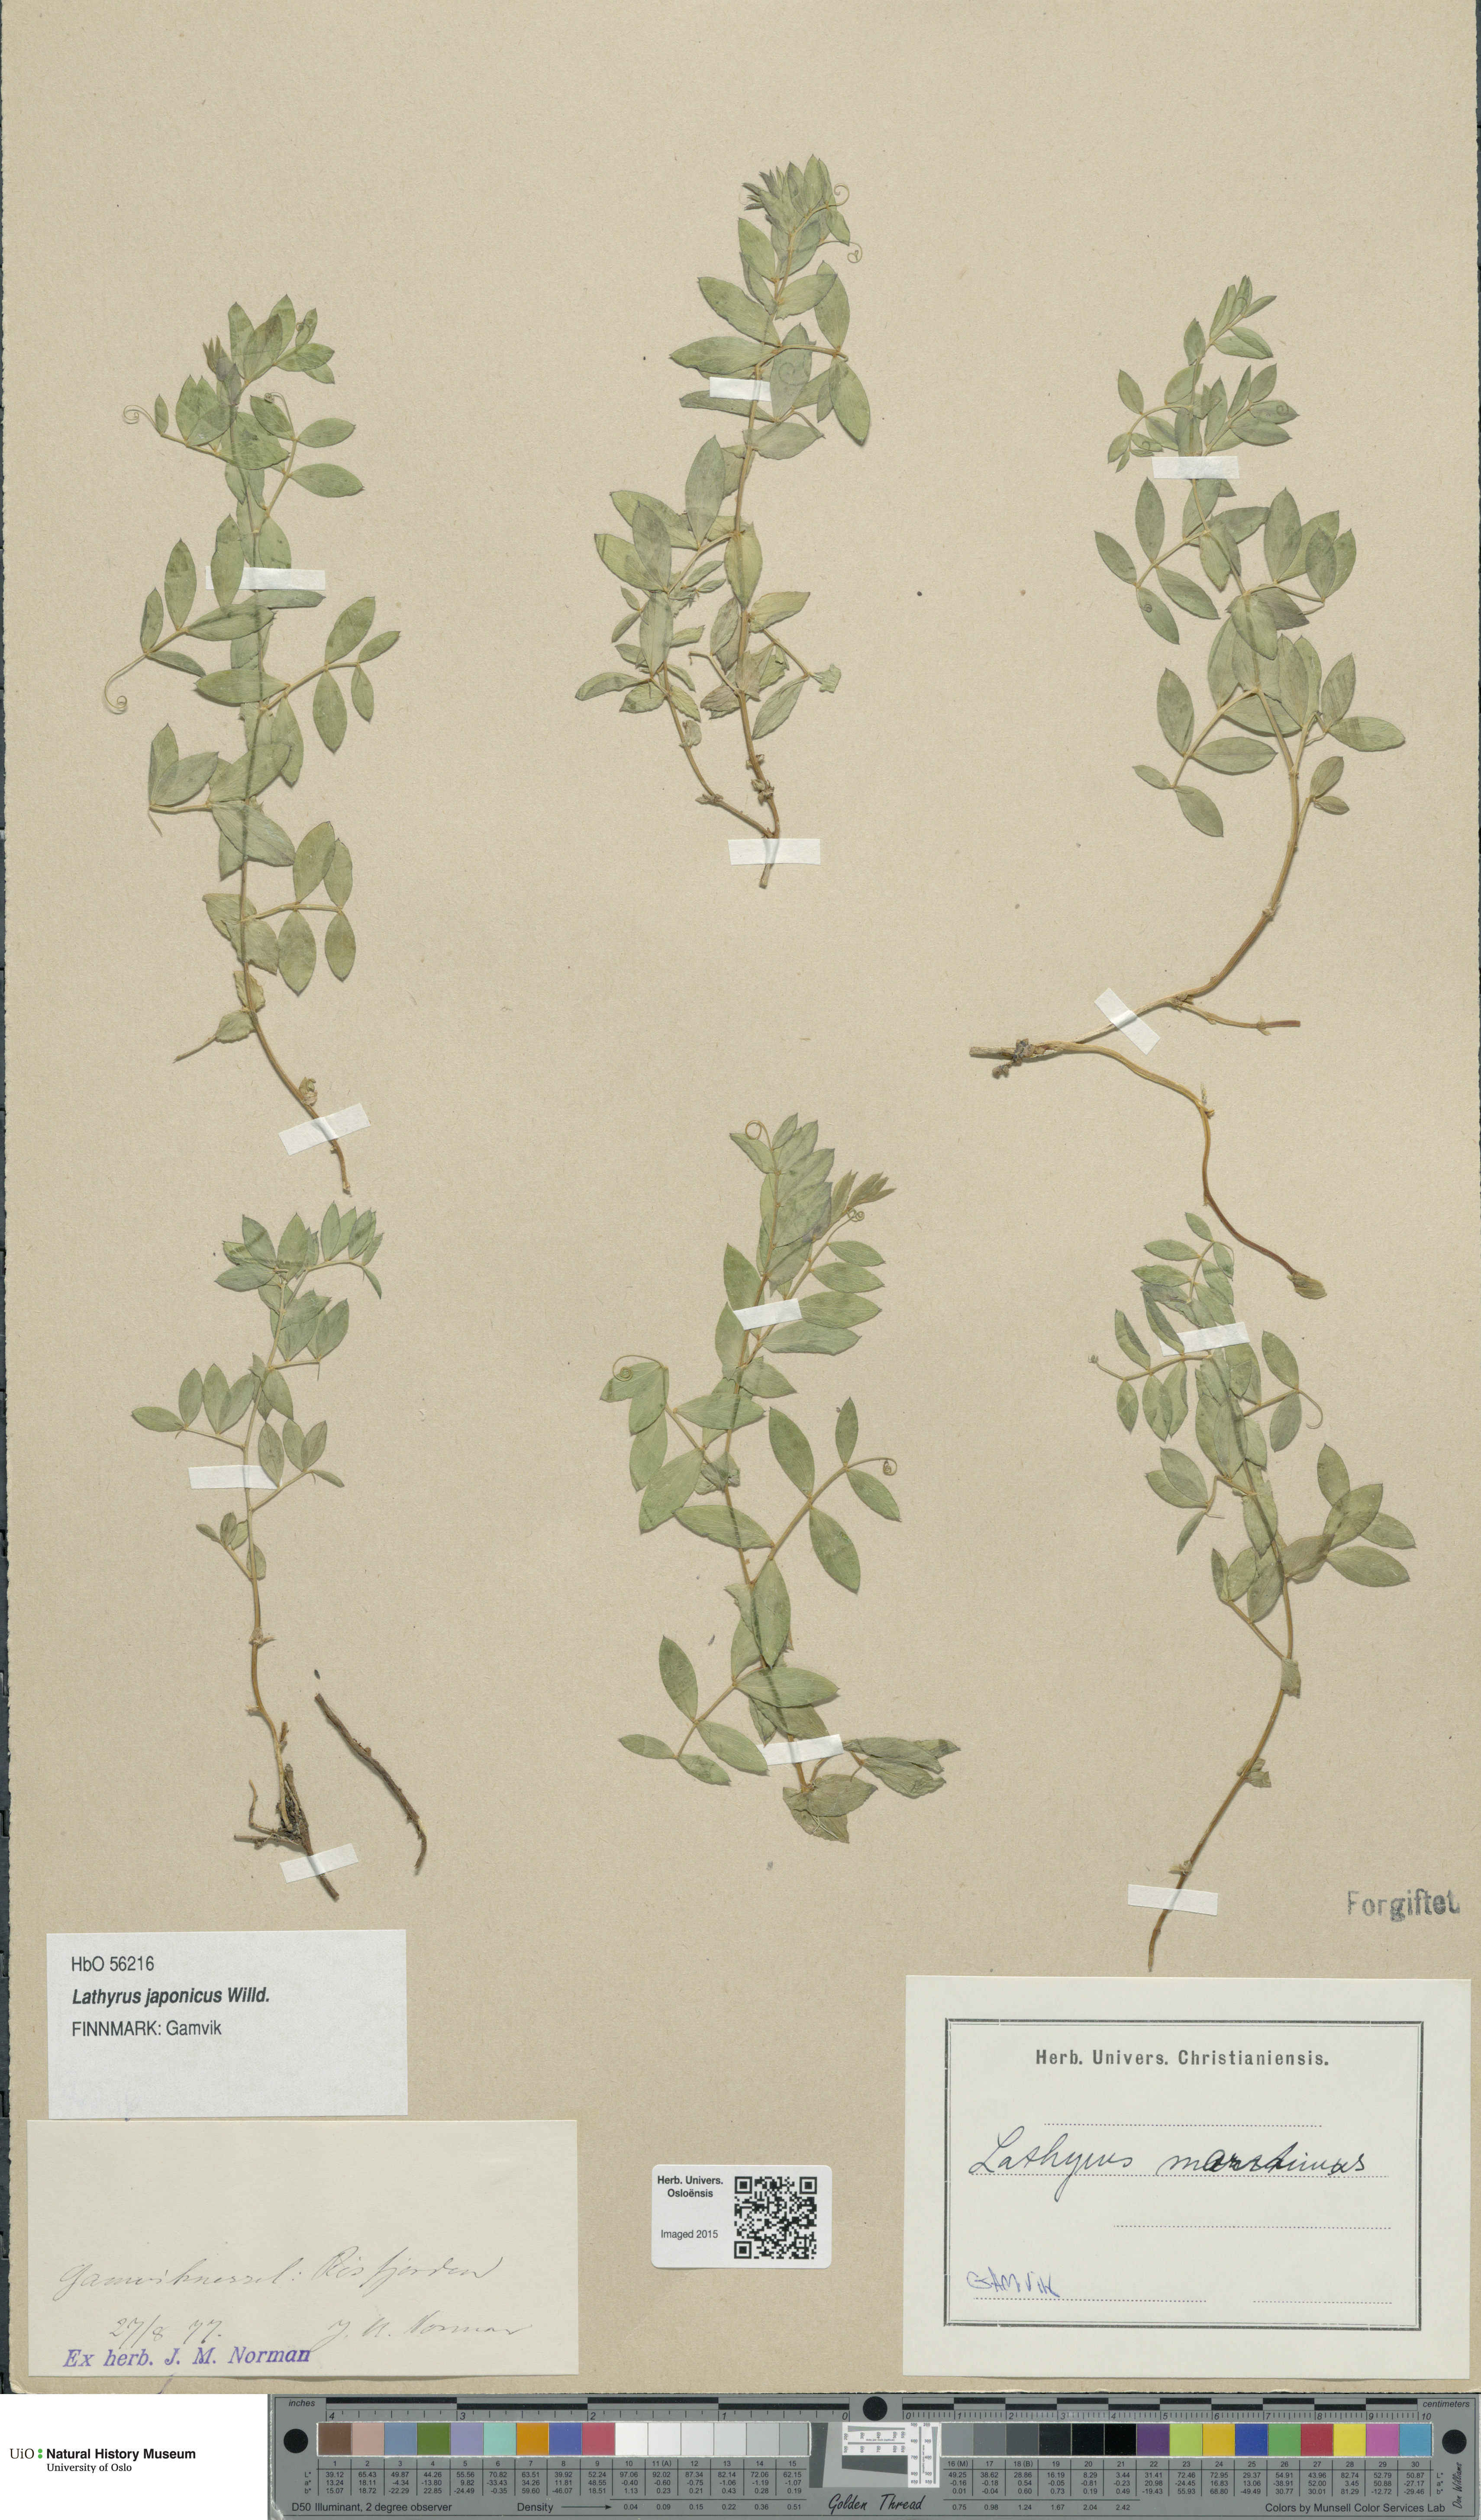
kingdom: Plantae
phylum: Tracheophyta
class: Magnoliopsida
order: Fabales
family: Fabaceae
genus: Lathyrus
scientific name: Lathyrus
